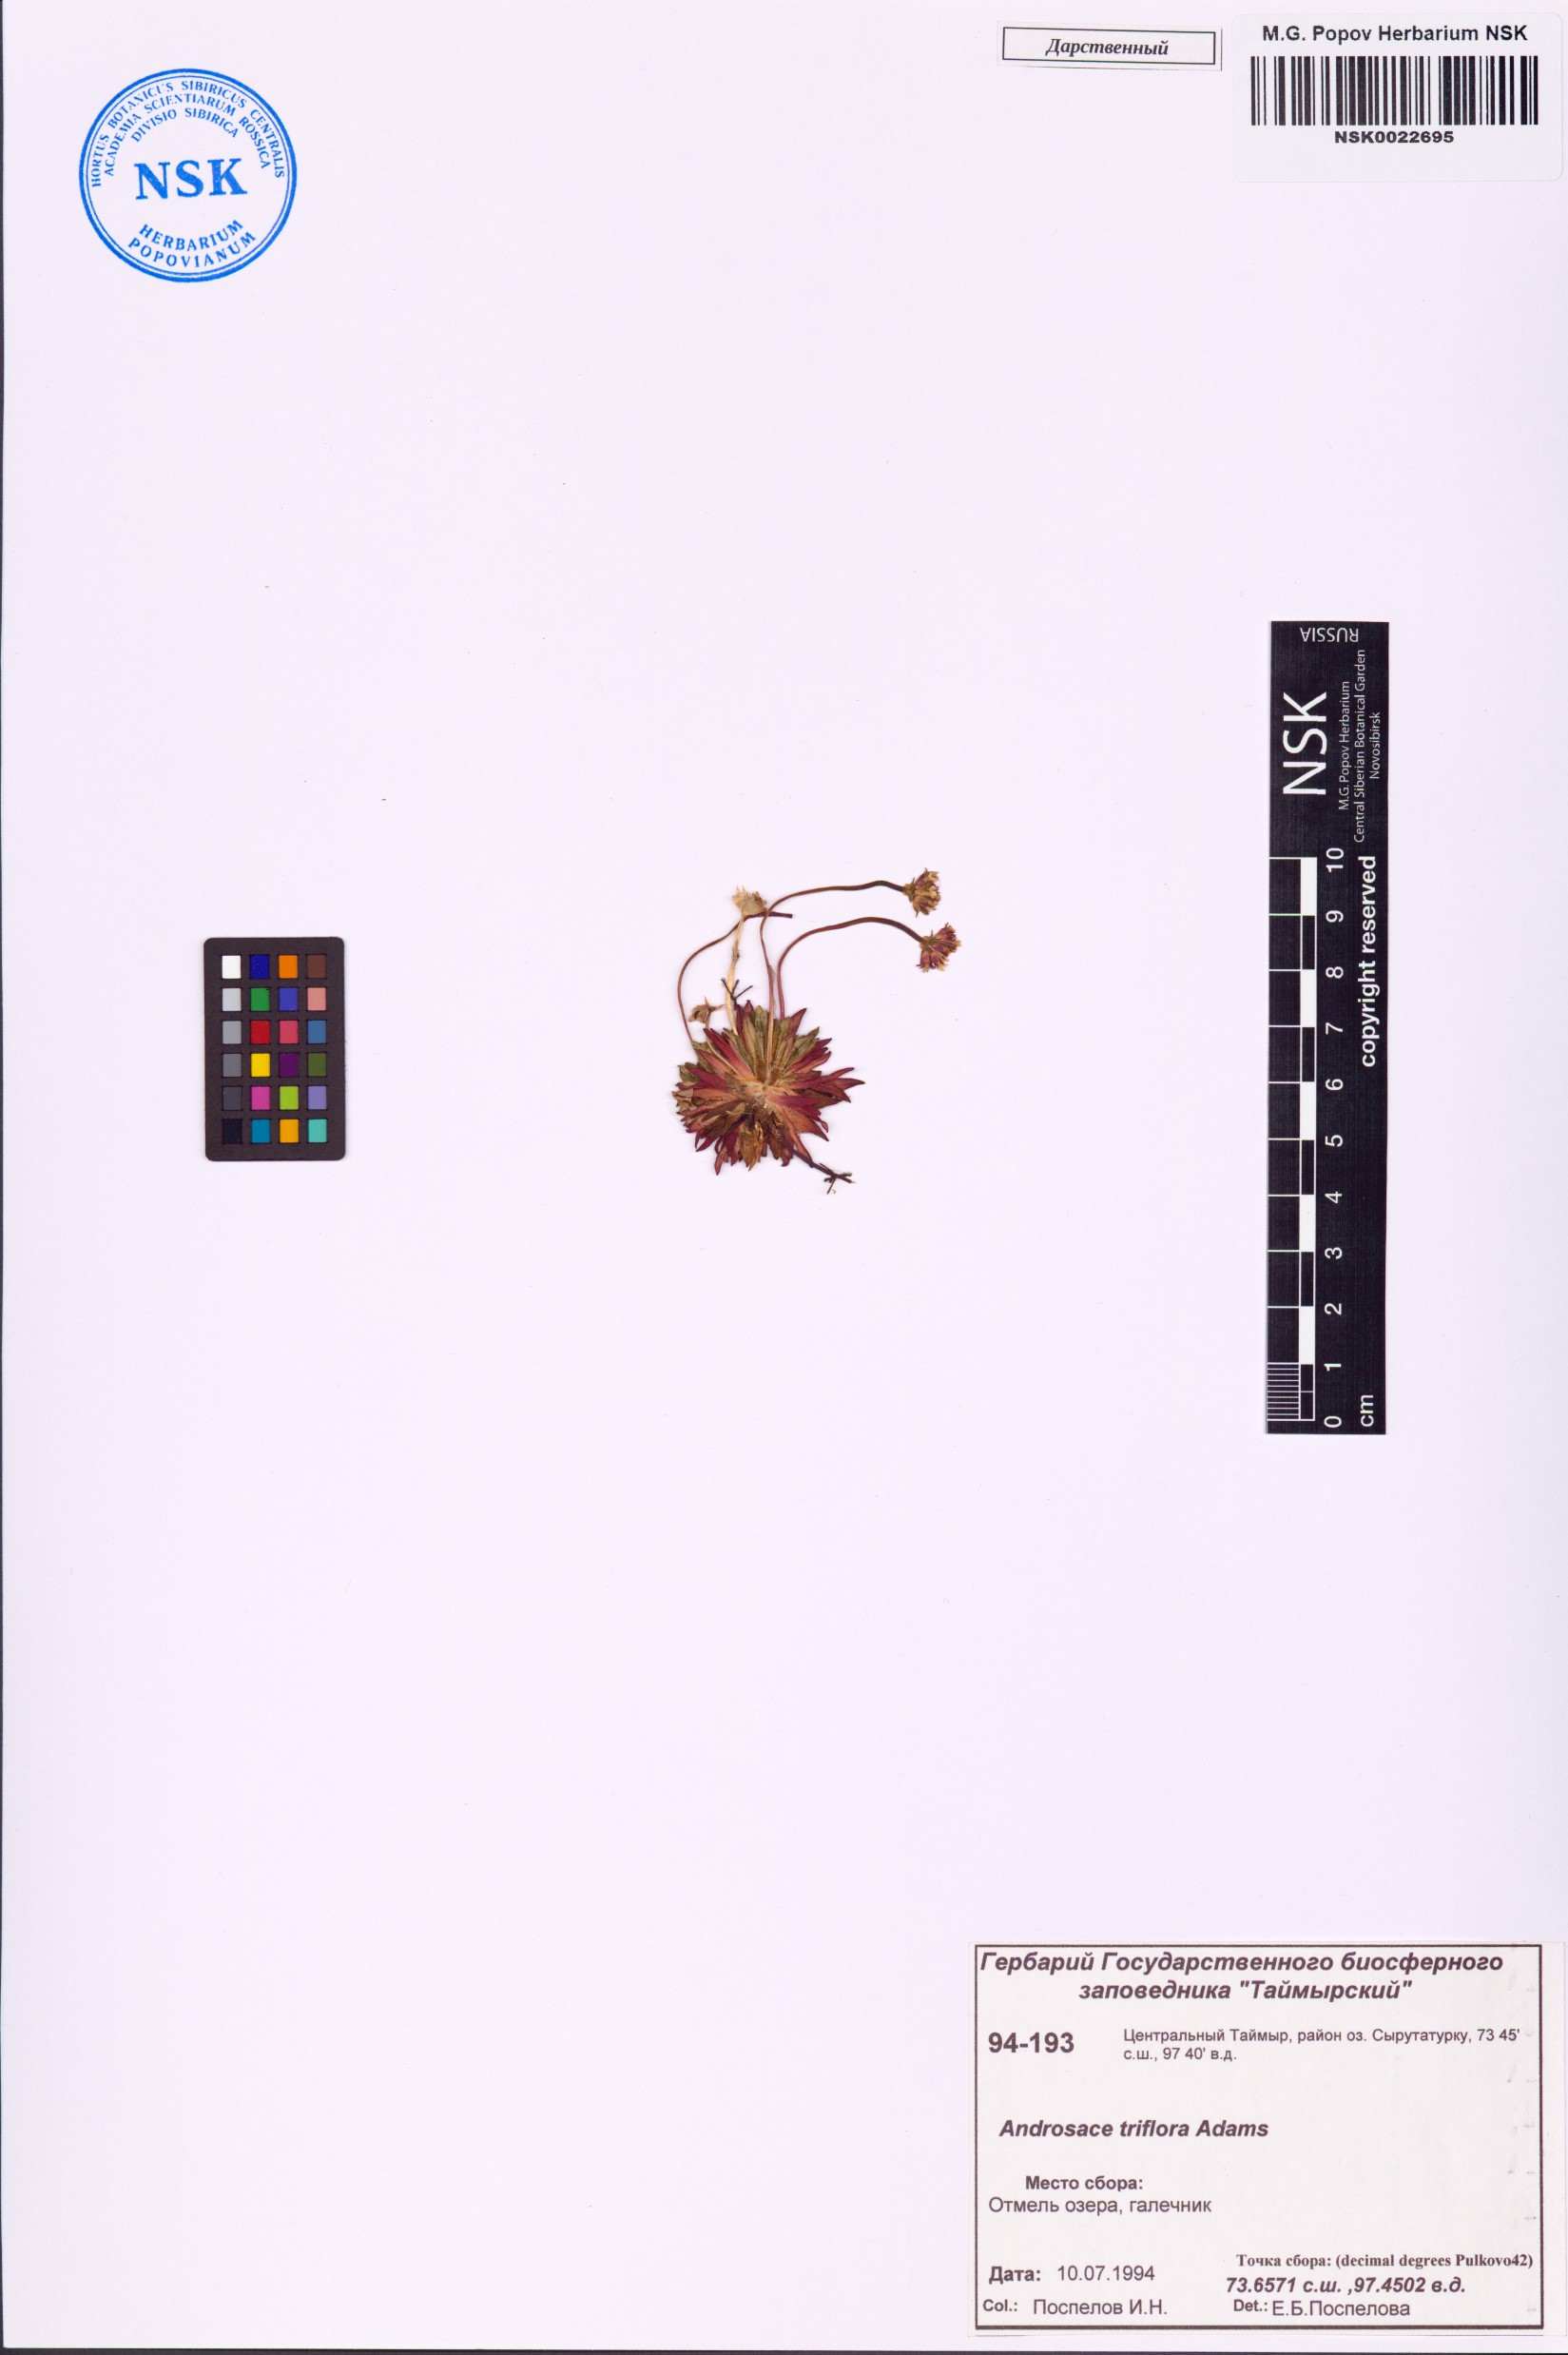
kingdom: Plantae
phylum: Tracheophyta
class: Magnoliopsida
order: Ericales
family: Primulaceae
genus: Androsace
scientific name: Androsace triflora
